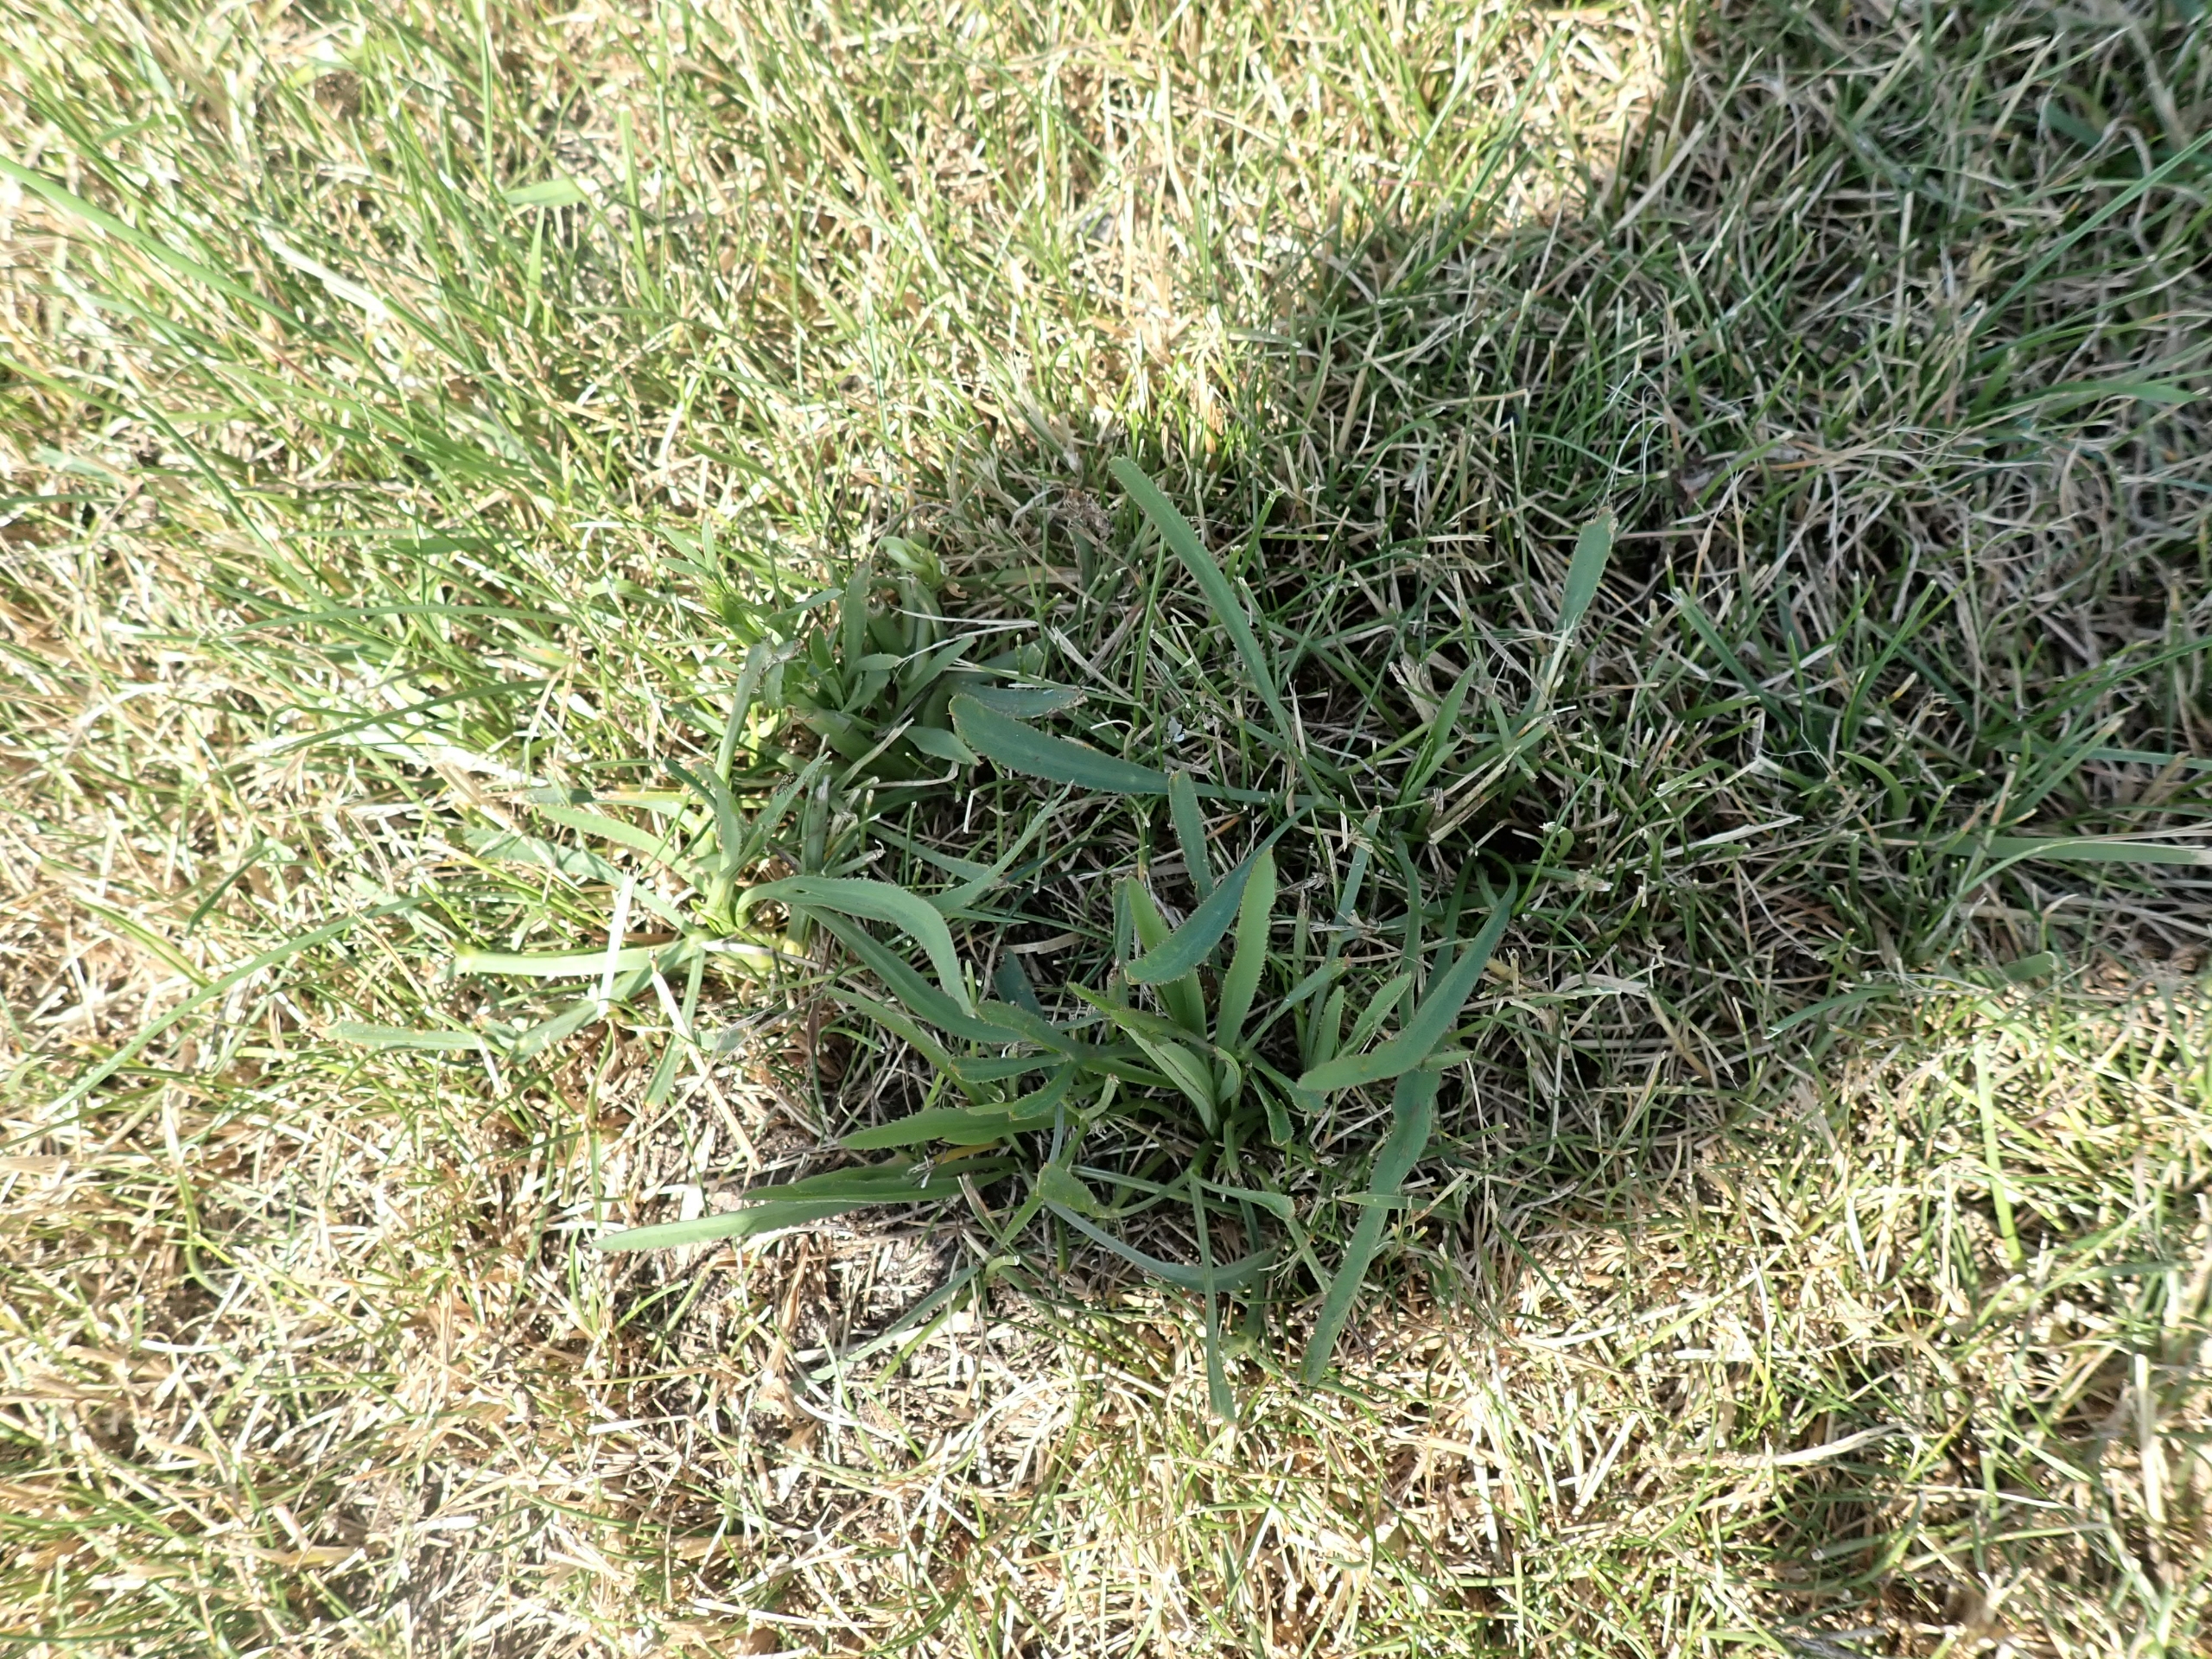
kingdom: Plantae
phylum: Tracheophyta
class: Magnoliopsida
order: Apiales
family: Apiaceae
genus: Falcaria
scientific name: Falcaria vulgaris
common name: Seglblad
